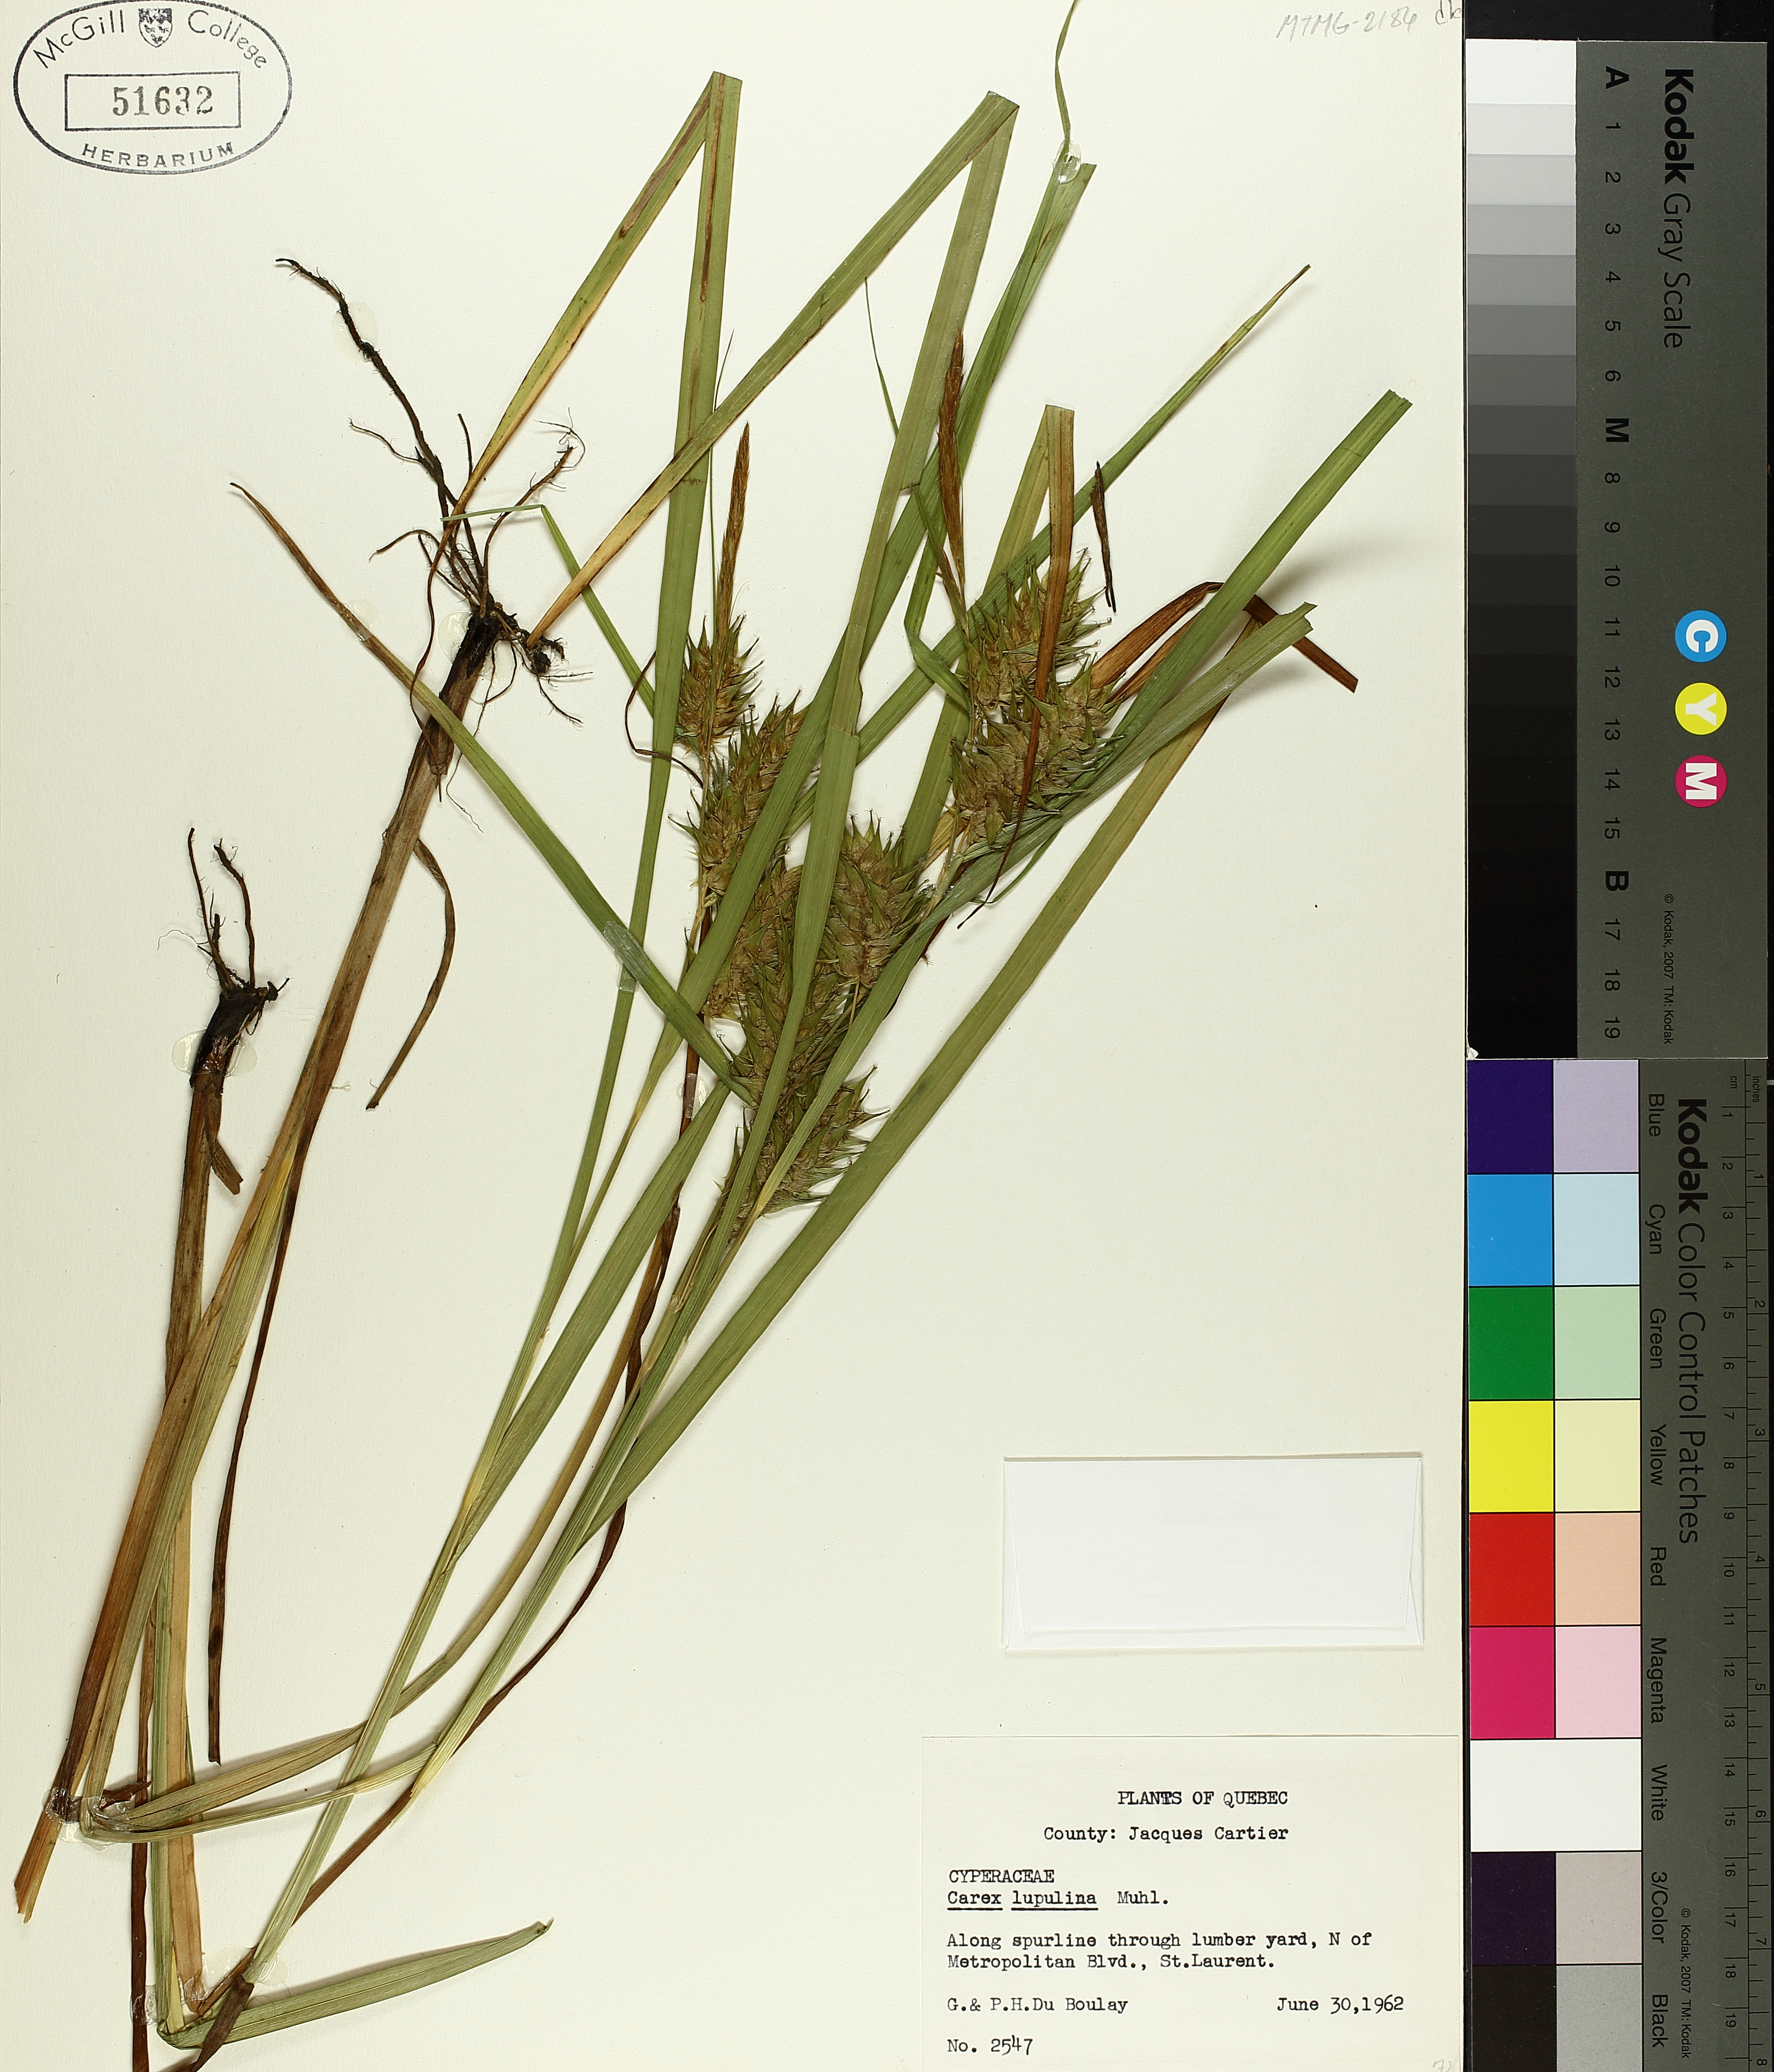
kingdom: Plantae
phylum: Tracheophyta
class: Liliopsida
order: Poales
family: Cyperaceae
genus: Carex
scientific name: Carex lupulina
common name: Hop sedge
